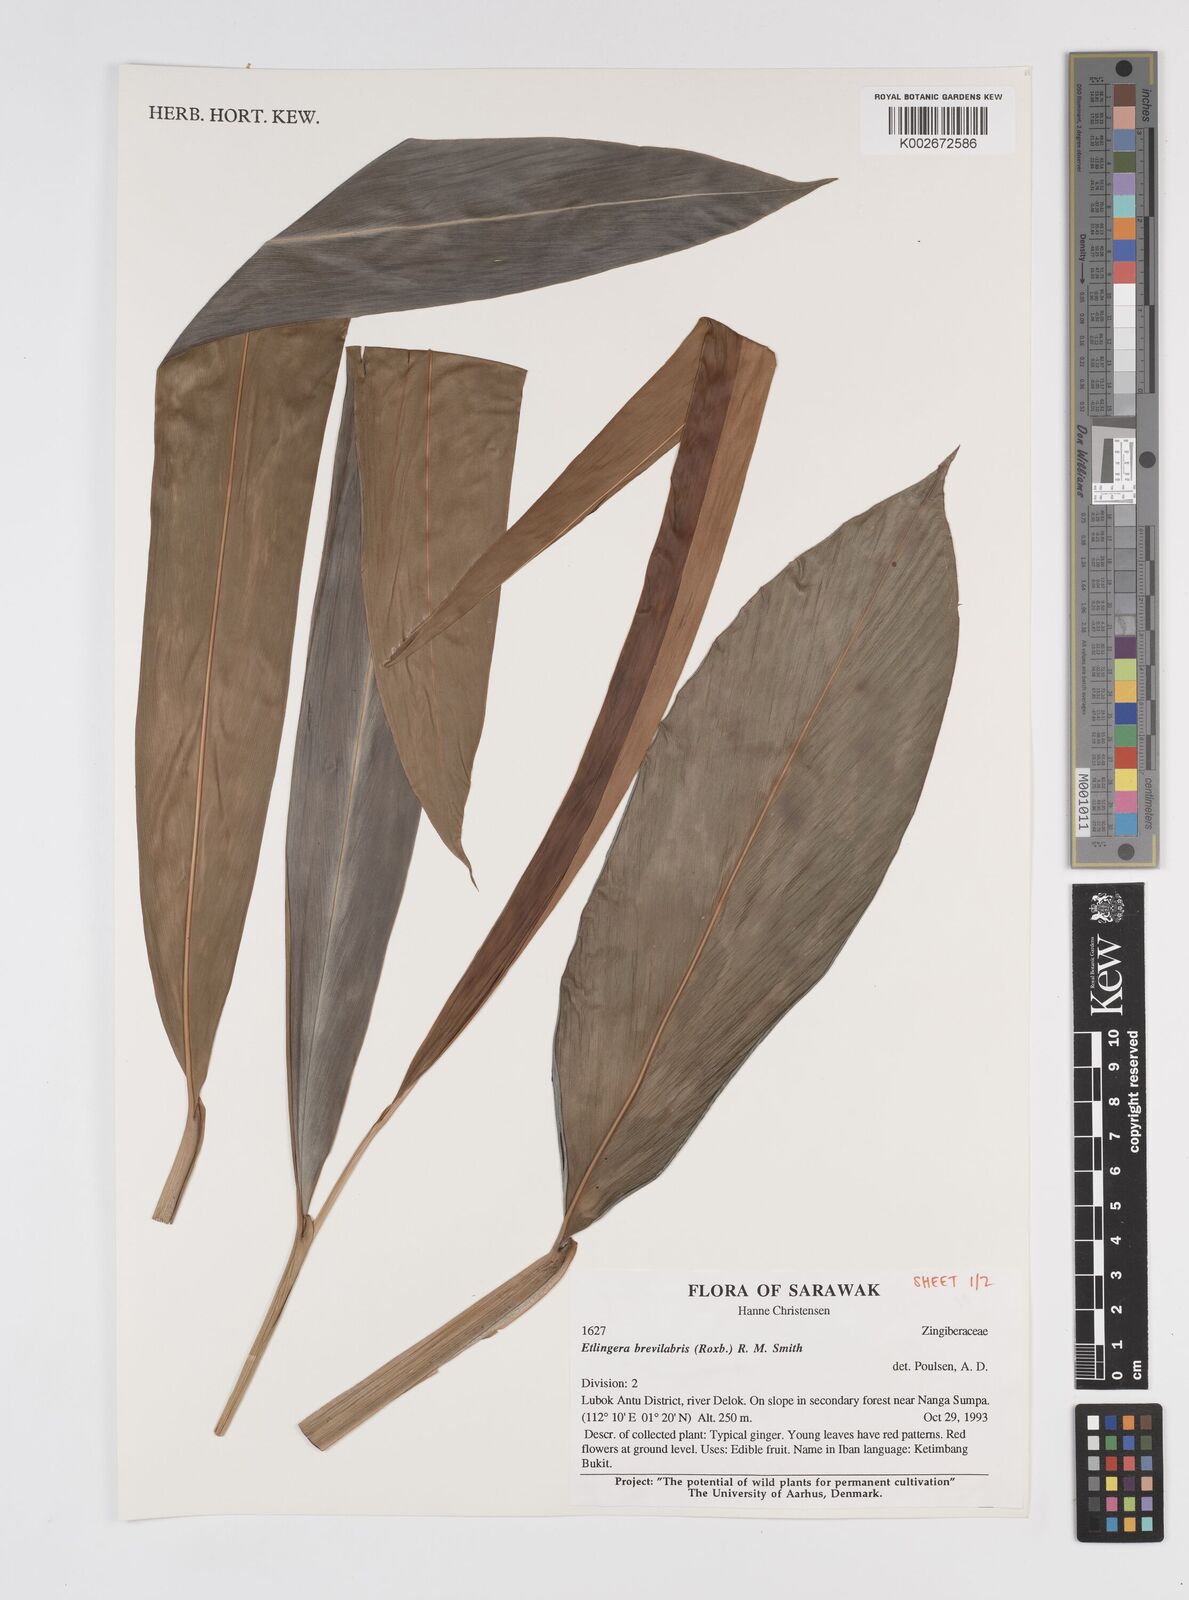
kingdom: Plantae
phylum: Tracheophyta
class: Liliopsida
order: Zingiberales
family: Zingiberaceae
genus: Etlingera
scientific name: Etlingera
